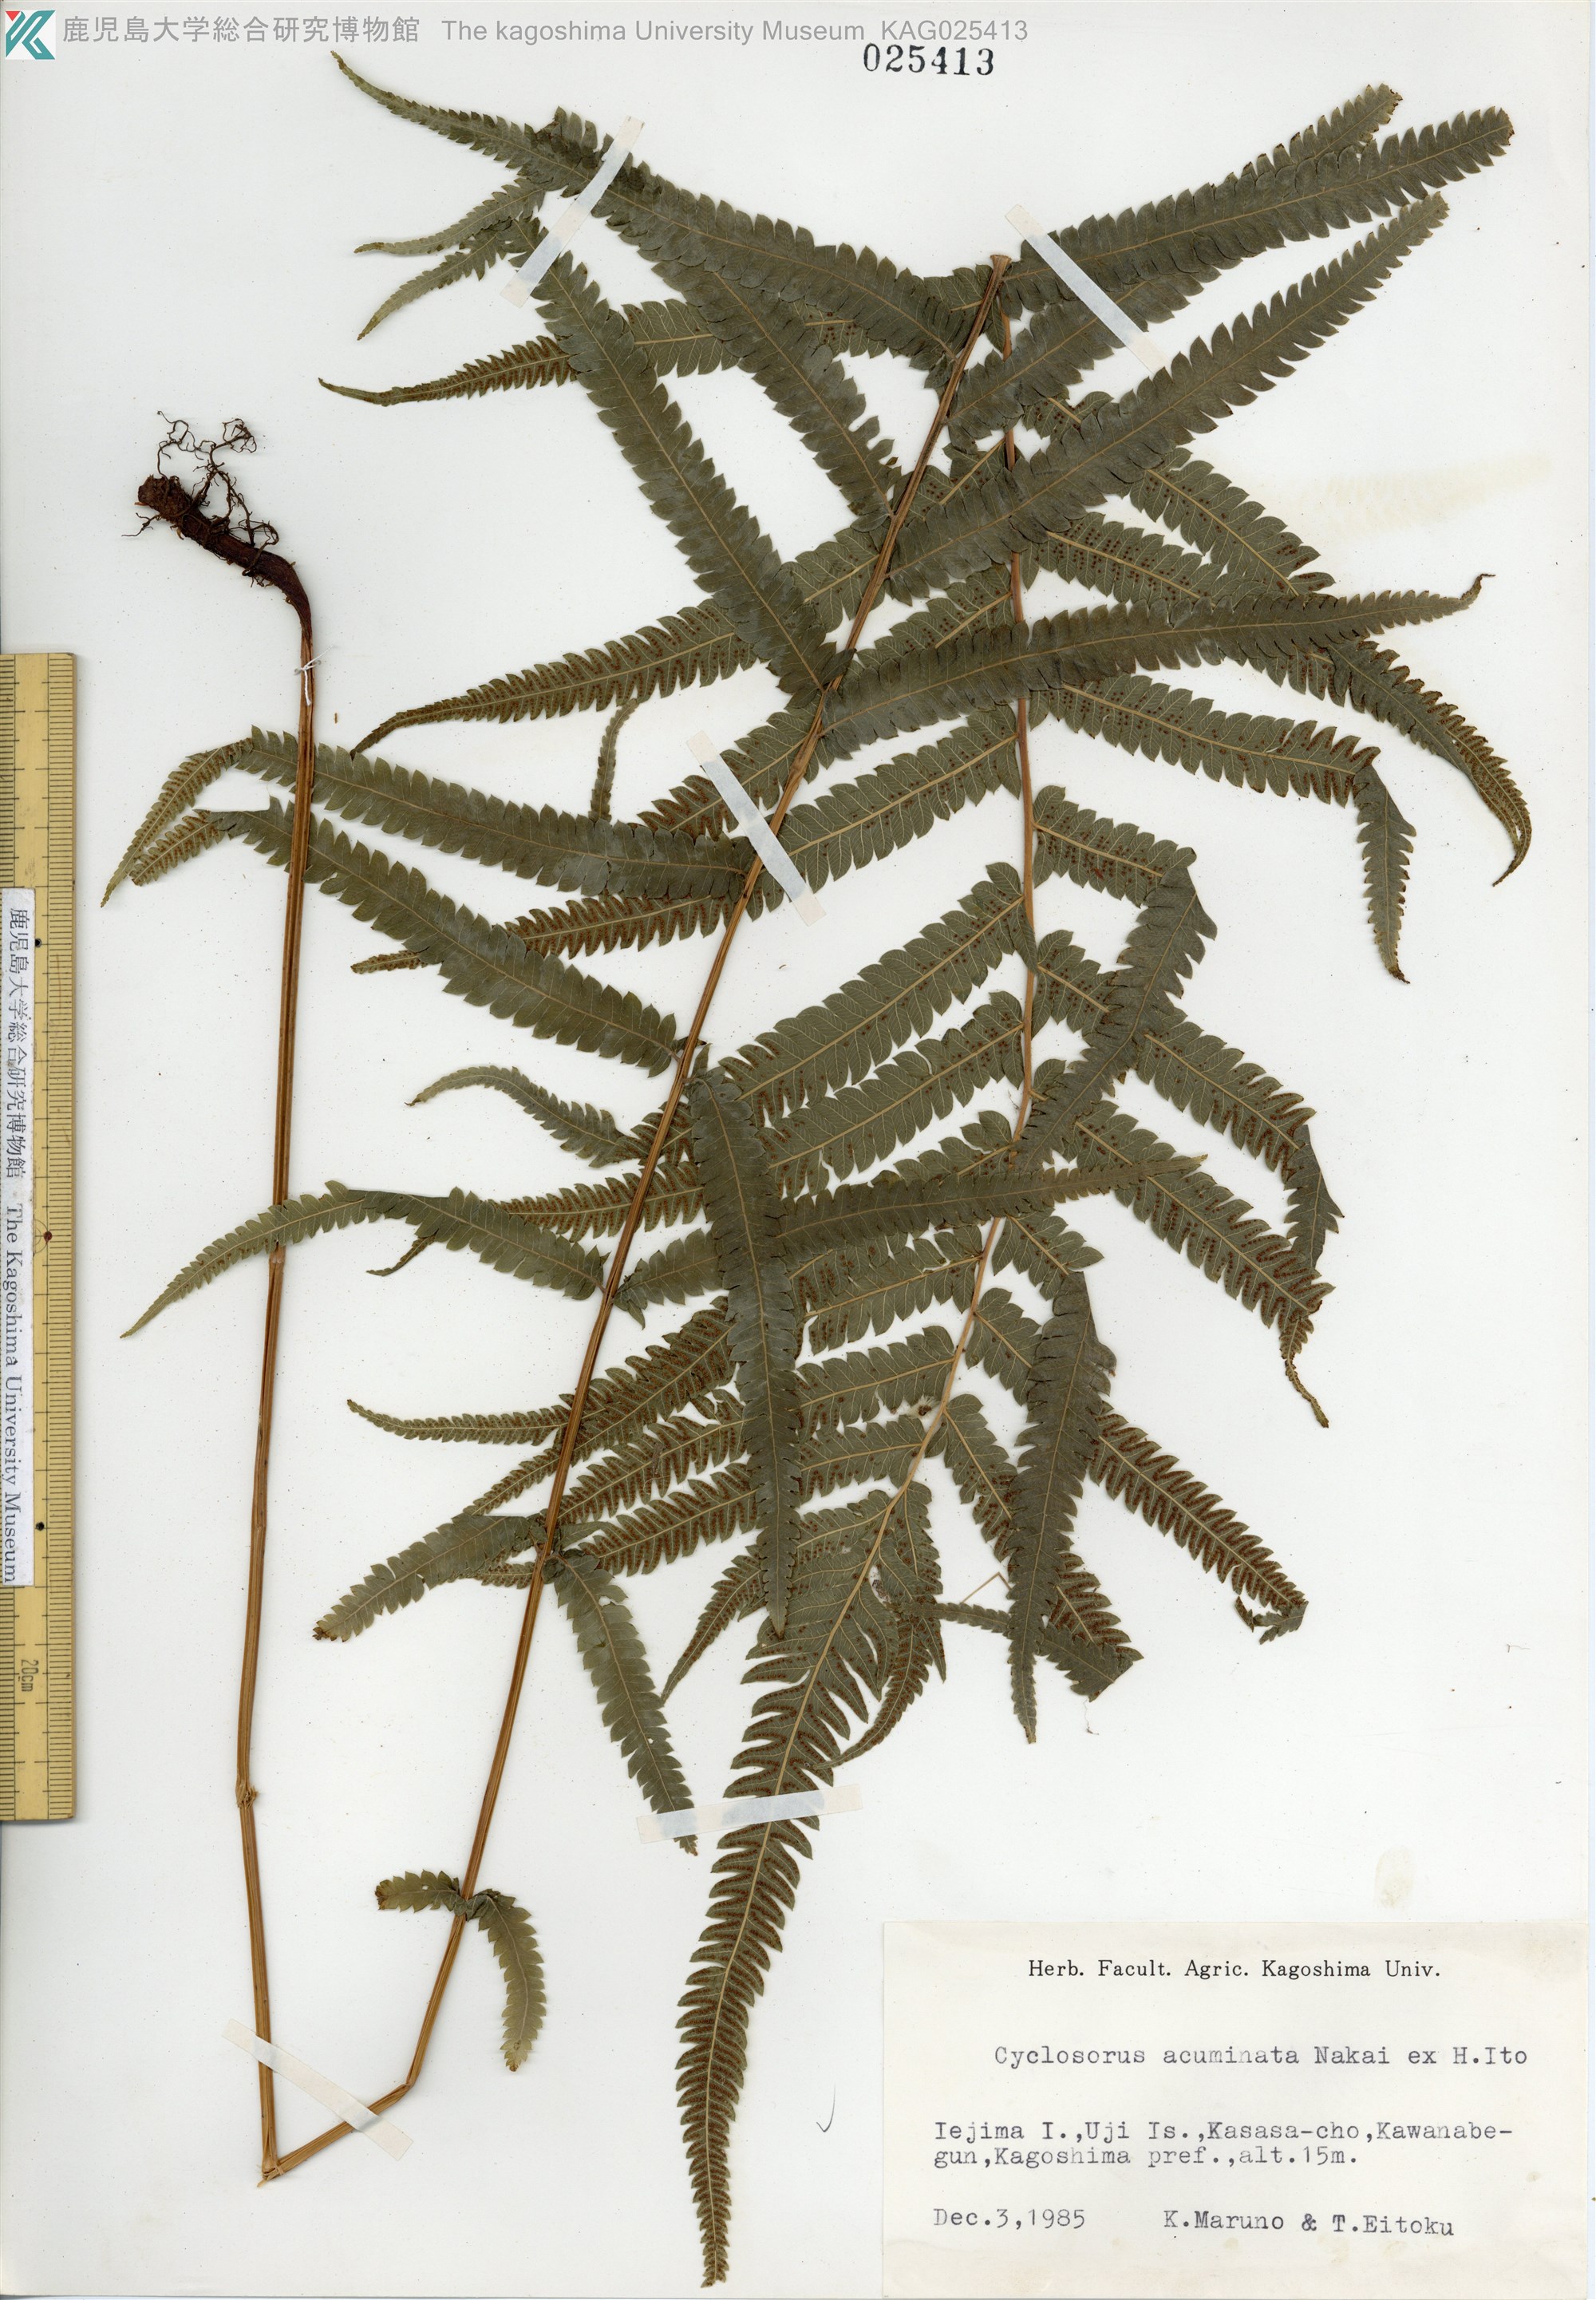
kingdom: Plantae
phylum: Tracheophyta
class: Polypodiopsida
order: Polypodiales
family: Thelypteridaceae
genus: Christella
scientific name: Christella acuminata
